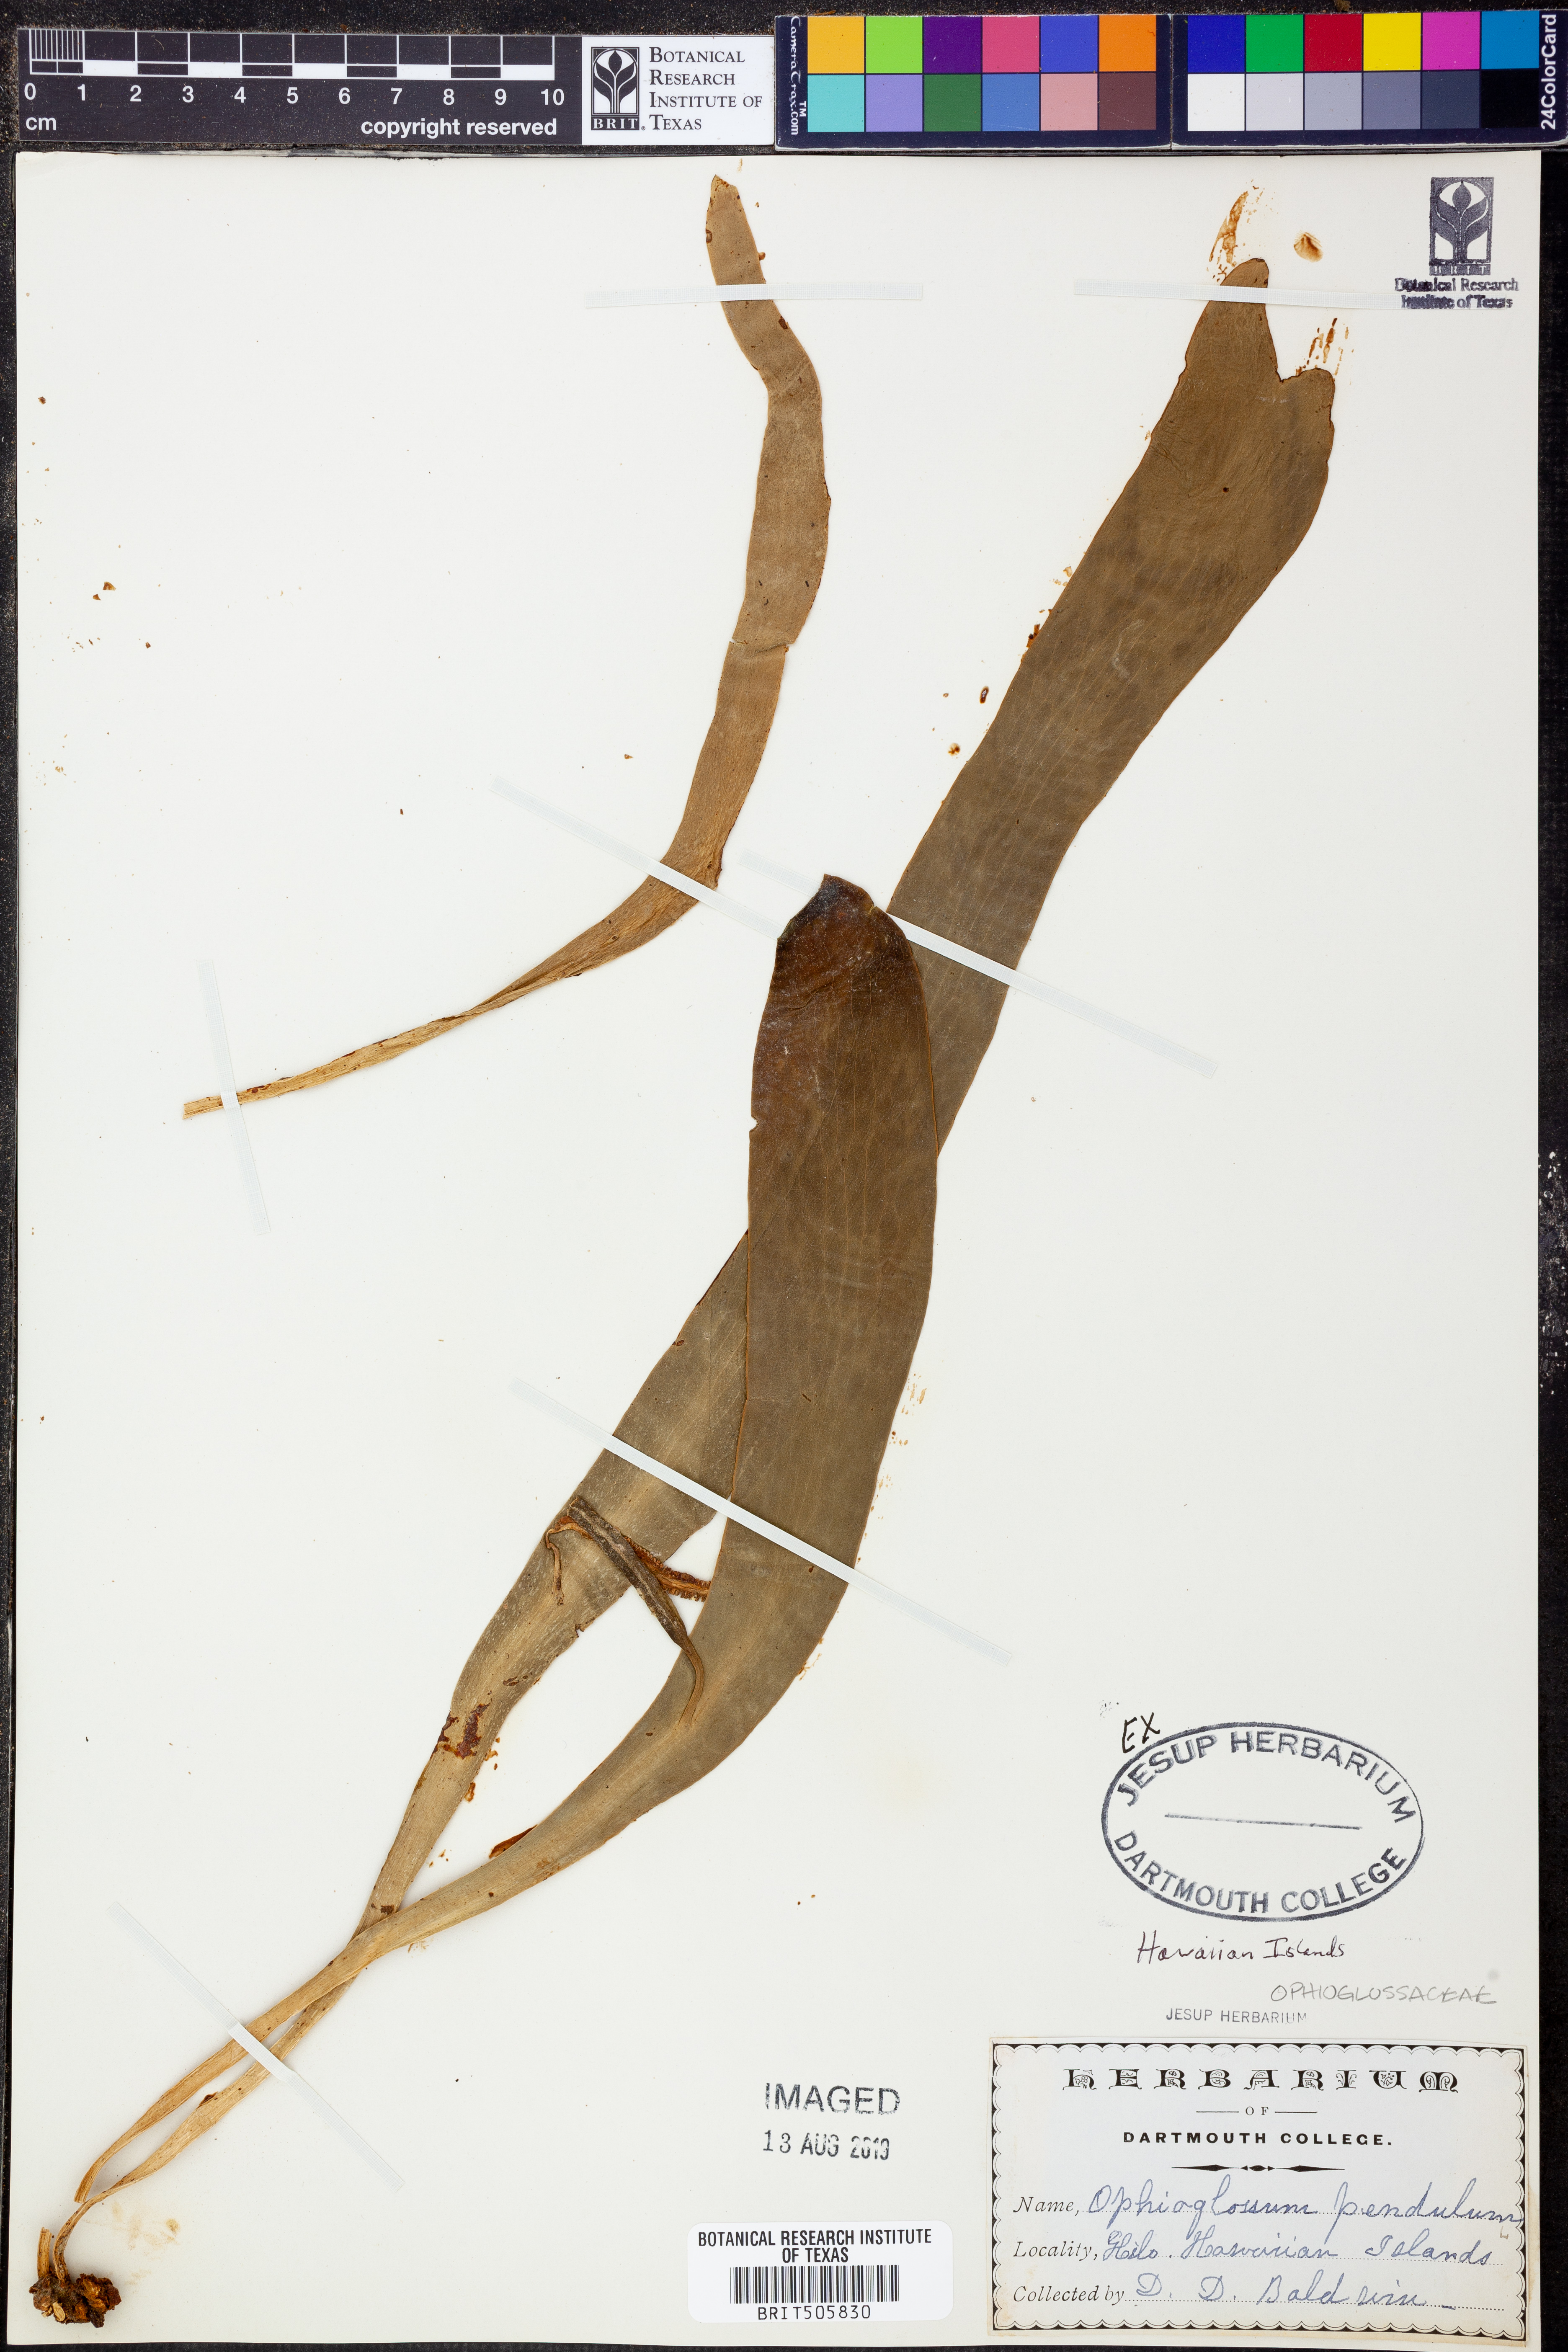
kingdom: Plantae
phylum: Tracheophyta
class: Polypodiopsida
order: Ophioglossales
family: Ophioglossaceae
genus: Ophioderma
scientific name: Ophioderma pendulum
